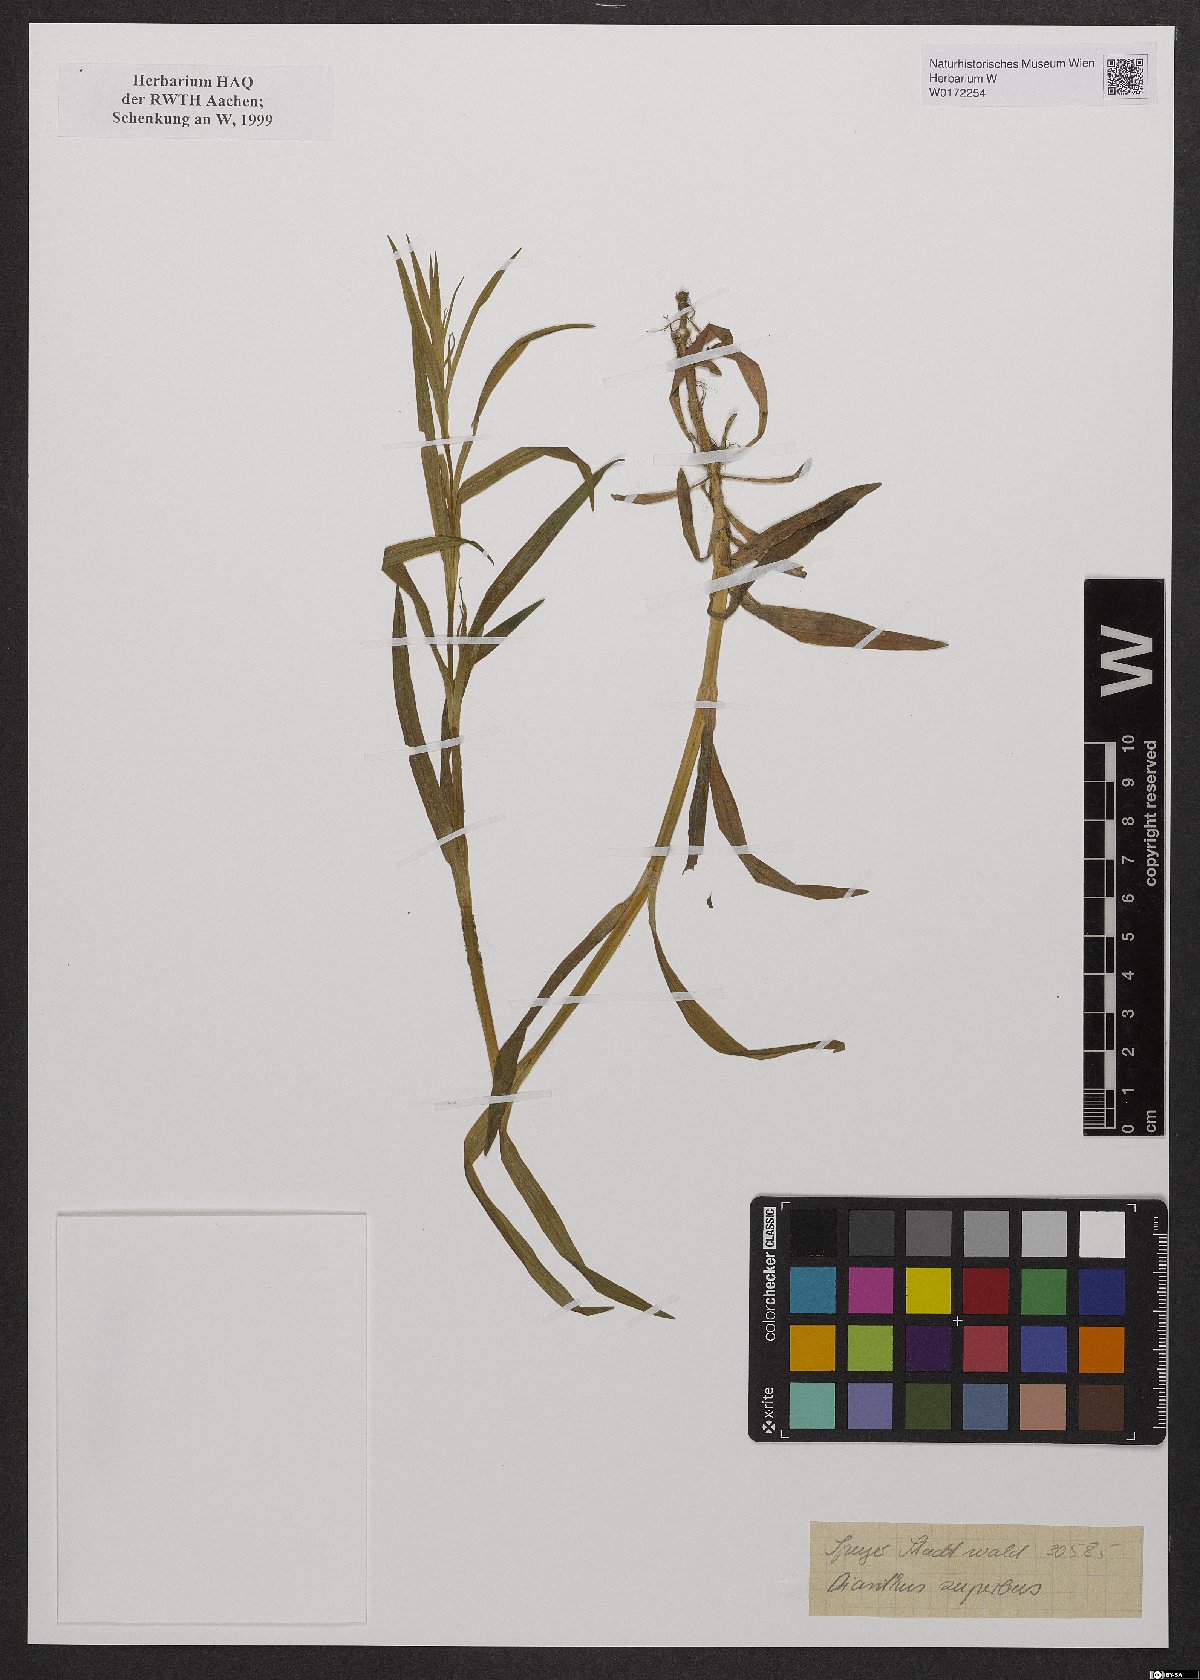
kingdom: Plantae
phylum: Tracheophyta
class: Magnoliopsida
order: Caryophyllales
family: Caryophyllaceae
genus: Dianthus
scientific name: Dianthus superbus
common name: Fringed pink
